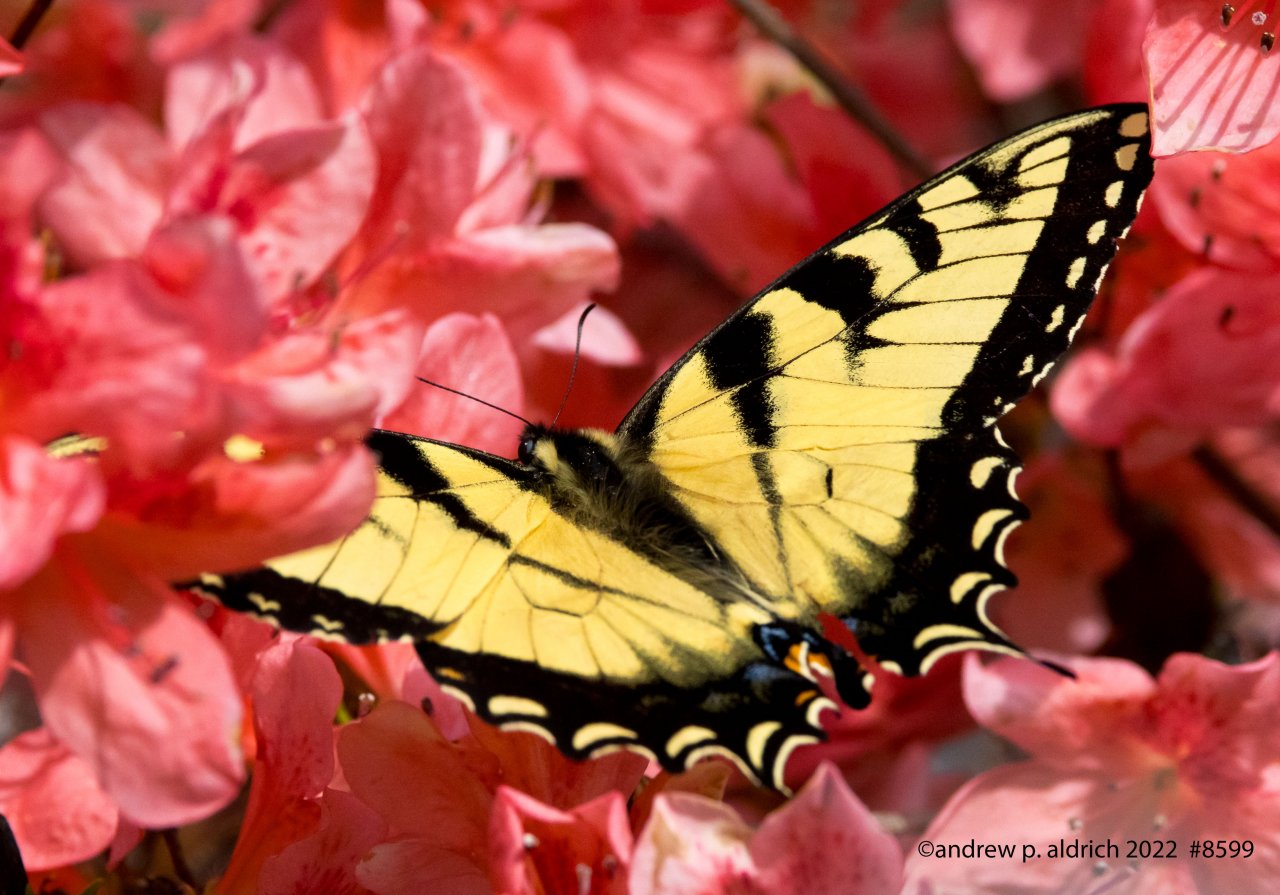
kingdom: Animalia
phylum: Arthropoda
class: Insecta
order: Lepidoptera
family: Papilionidae
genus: Pterourus
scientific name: Pterourus glaucus
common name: Eastern Tiger Swallowtail
